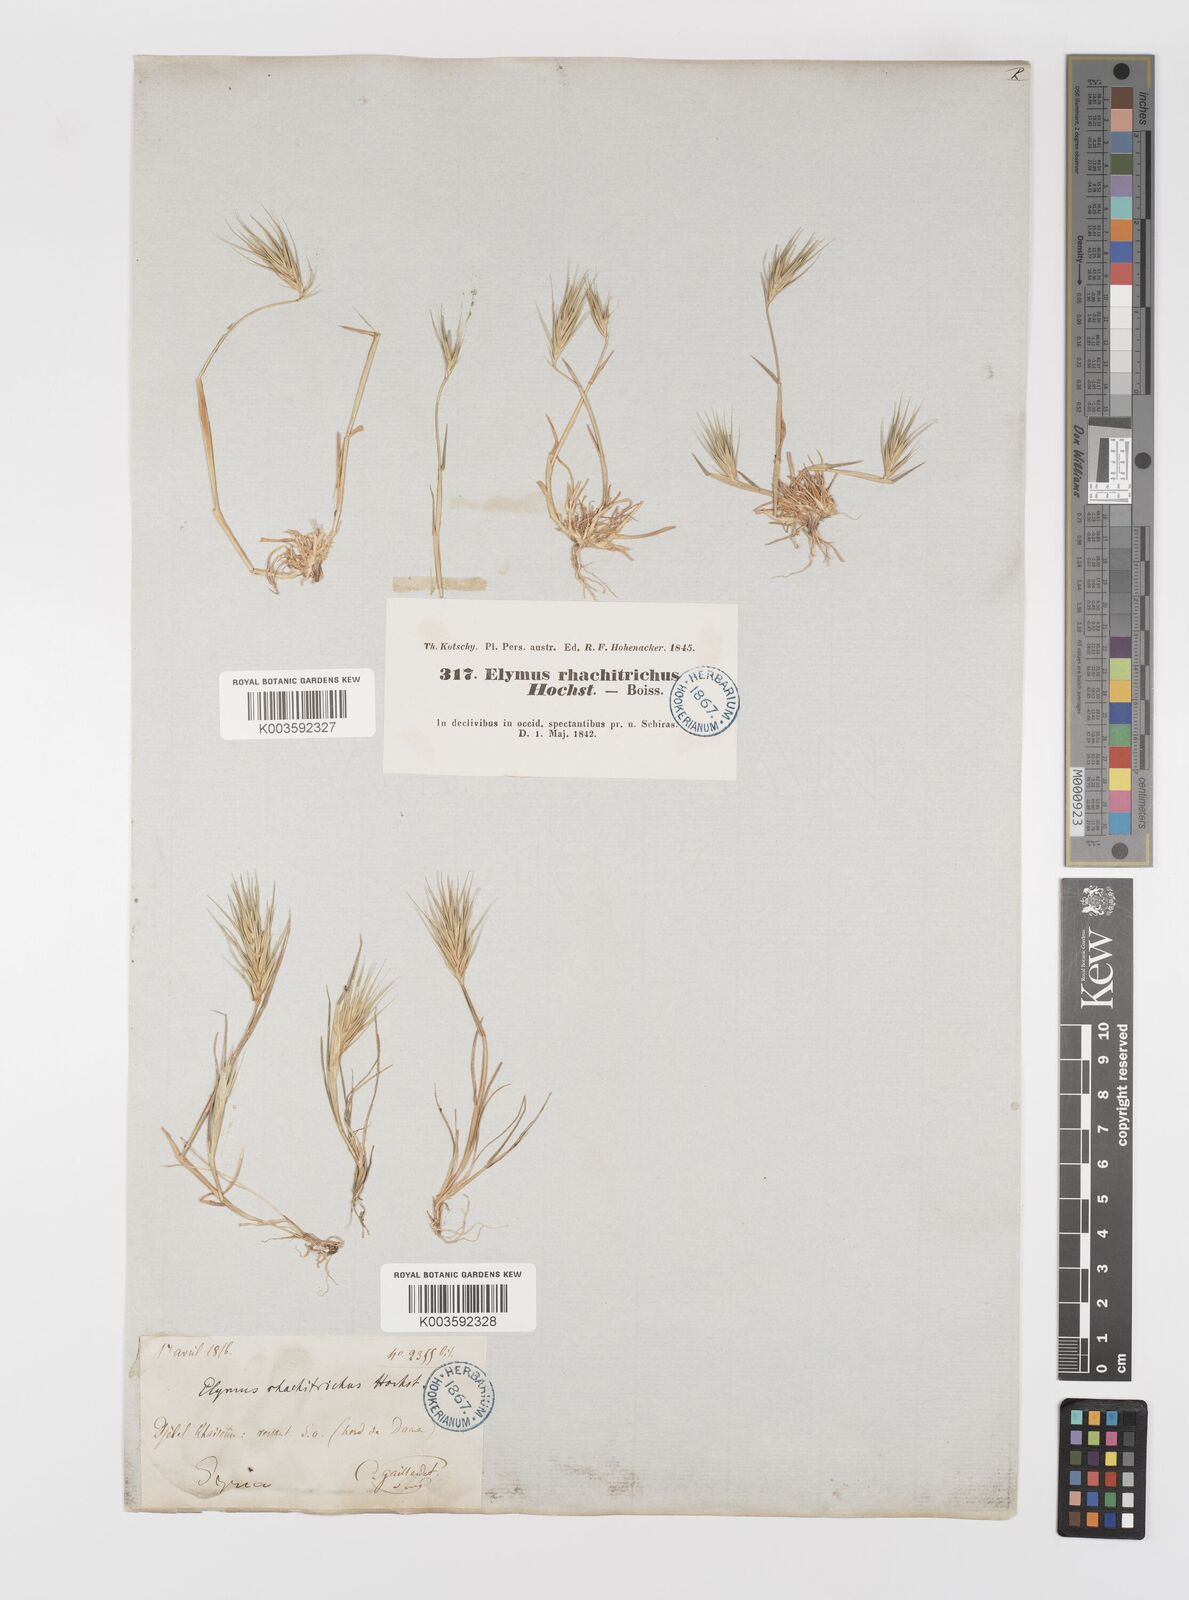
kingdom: Plantae
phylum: Tracheophyta
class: Liliopsida
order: Poales
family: Poaceae
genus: Crithopsis
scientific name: Crithopsis delileana
